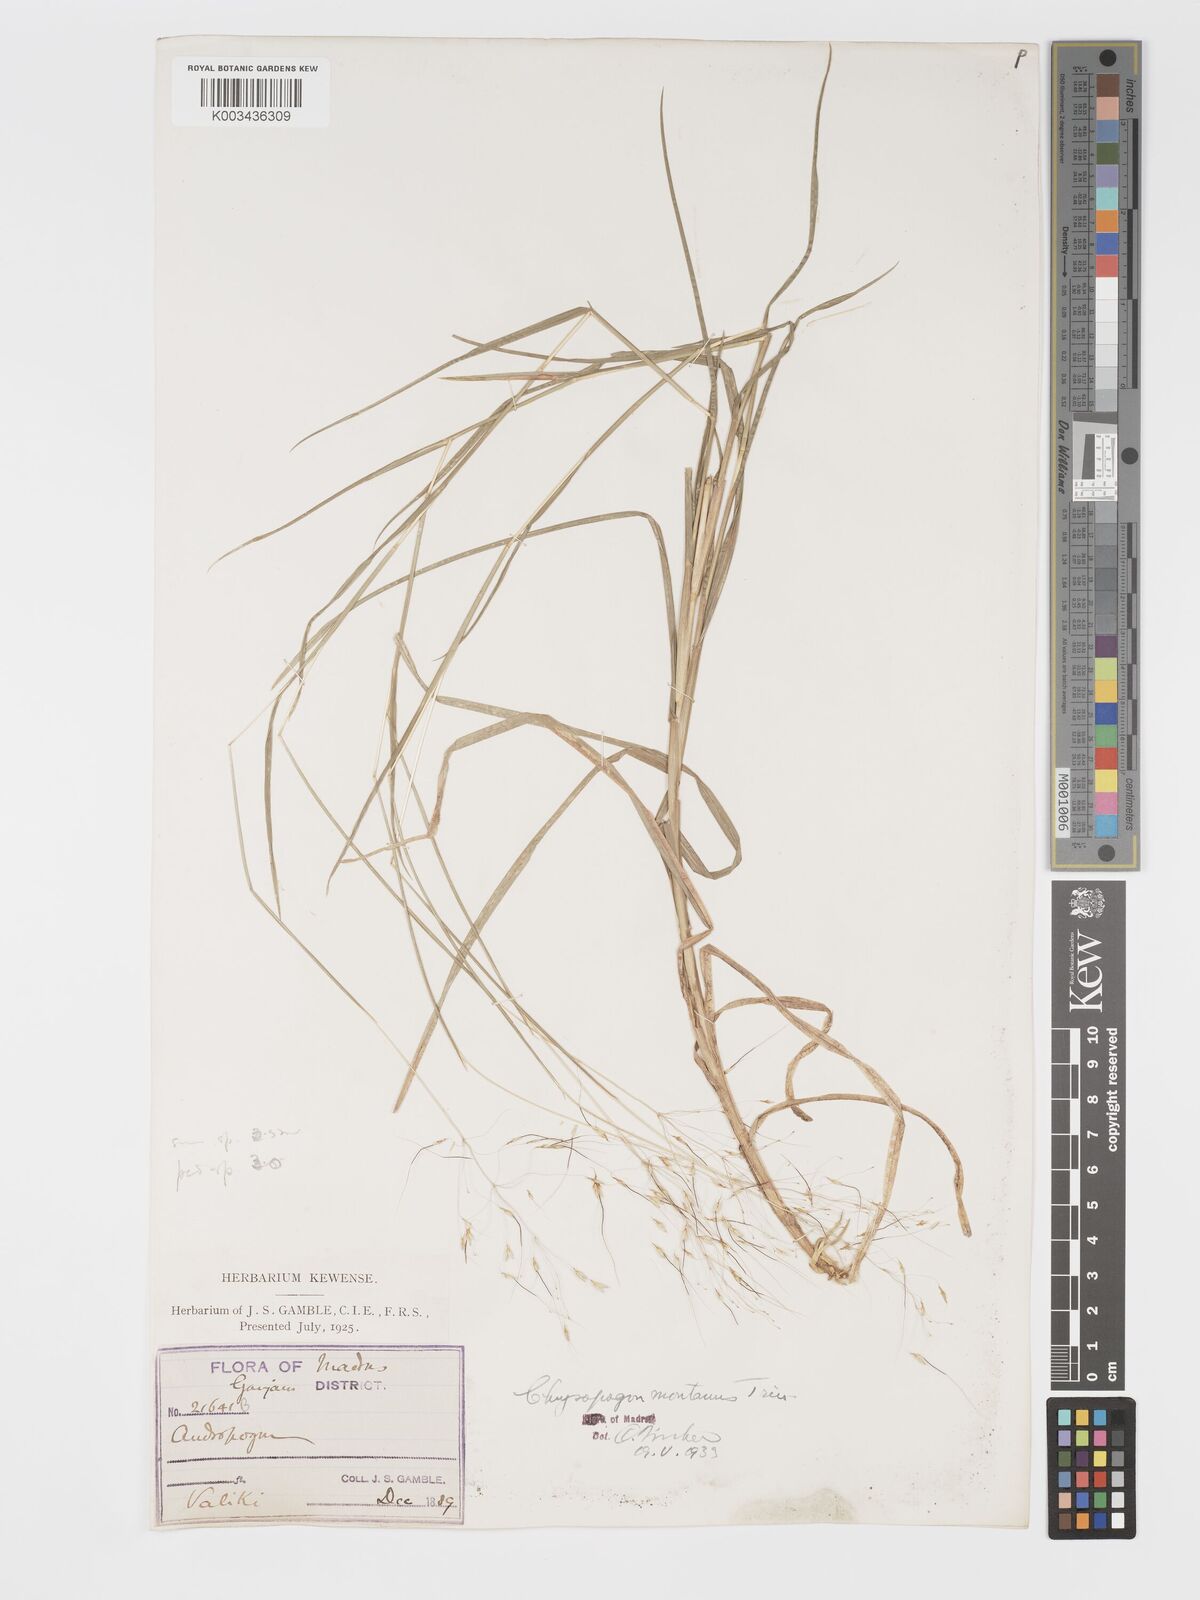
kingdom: Plantae
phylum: Tracheophyta
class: Liliopsida
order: Poales
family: Poaceae
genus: Chrysopogon
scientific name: Chrysopogon fulvus
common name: Red false beardgrass
